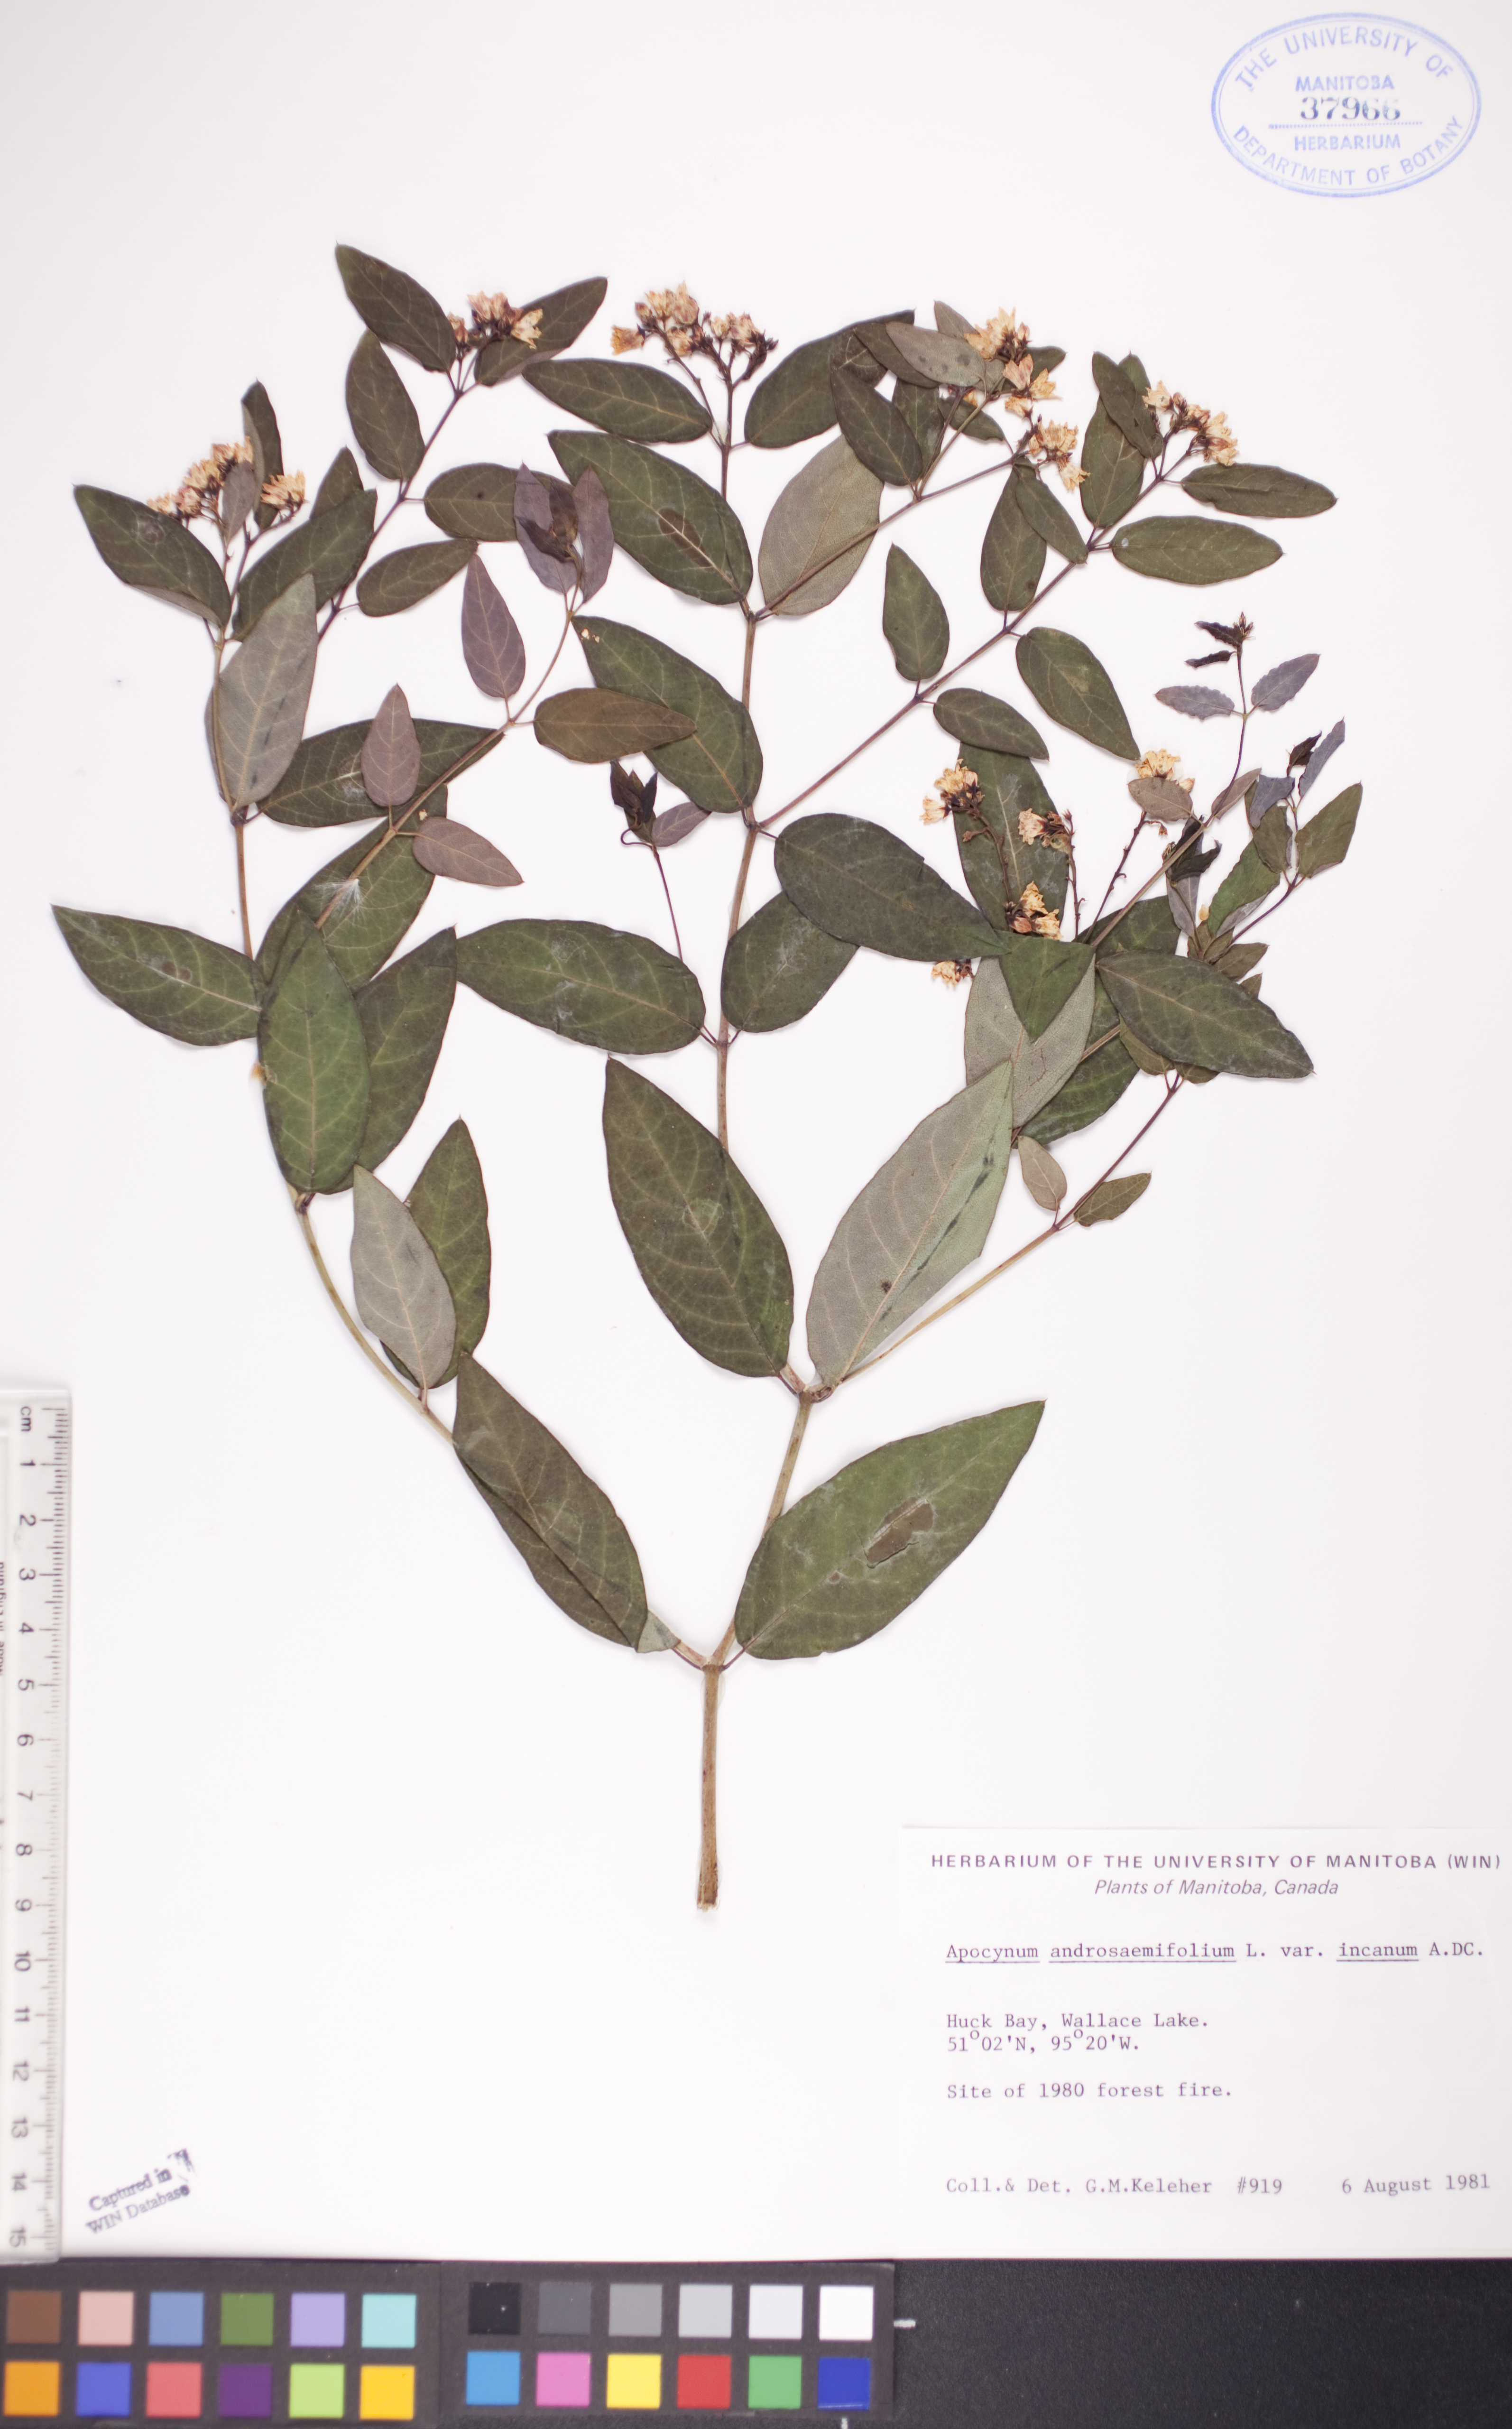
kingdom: Plantae
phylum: Tracheophyta
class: Magnoliopsida
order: Gentianales
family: Apocynaceae
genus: Apocynum
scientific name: Apocynum androsaemifolium
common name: Spreading dogbane
